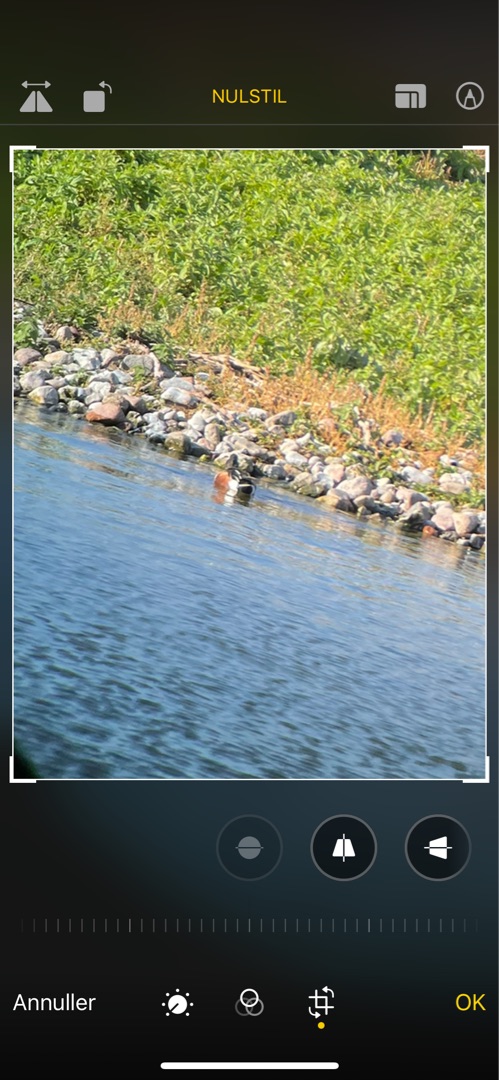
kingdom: Animalia
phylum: Chordata
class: Aves
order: Anseriformes
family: Anatidae
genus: Spatula
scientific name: Spatula clypeata
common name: Skeand
